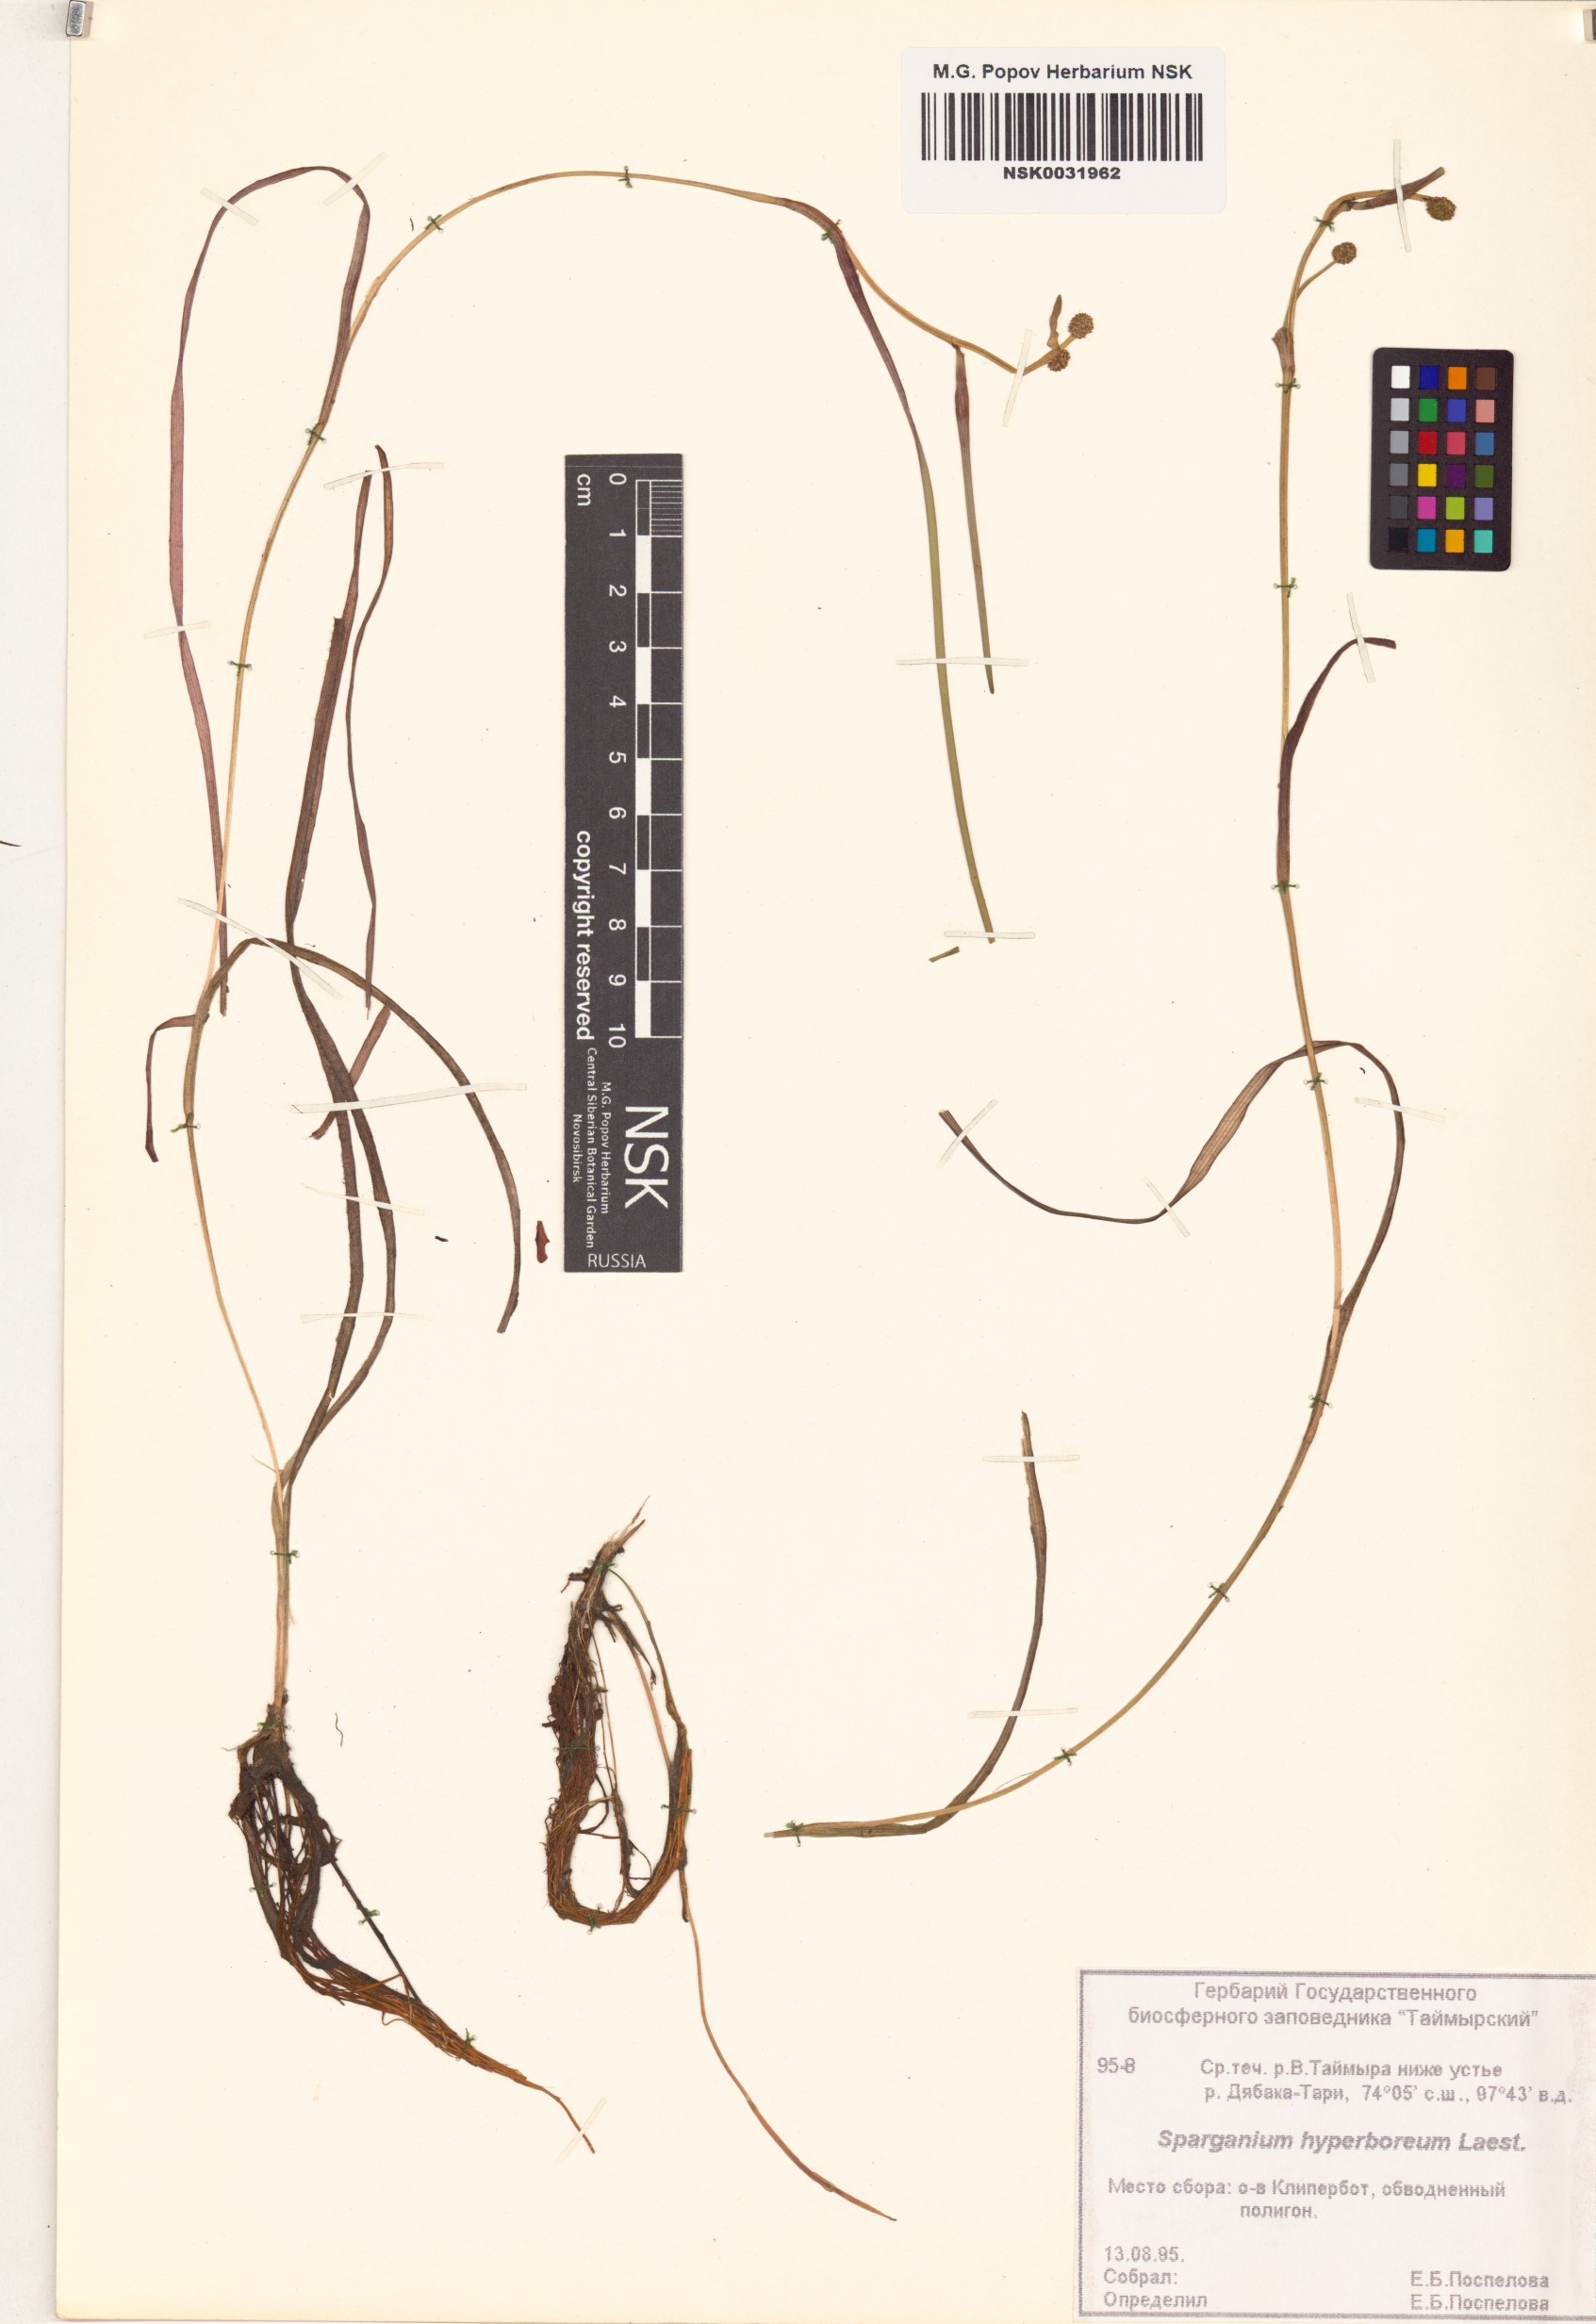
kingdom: Plantae
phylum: Tracheophyta
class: Liliopsida
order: Poales
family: Typhaceae
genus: Sparganium
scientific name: Sparganium hyperboreum
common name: Arctic burreed
